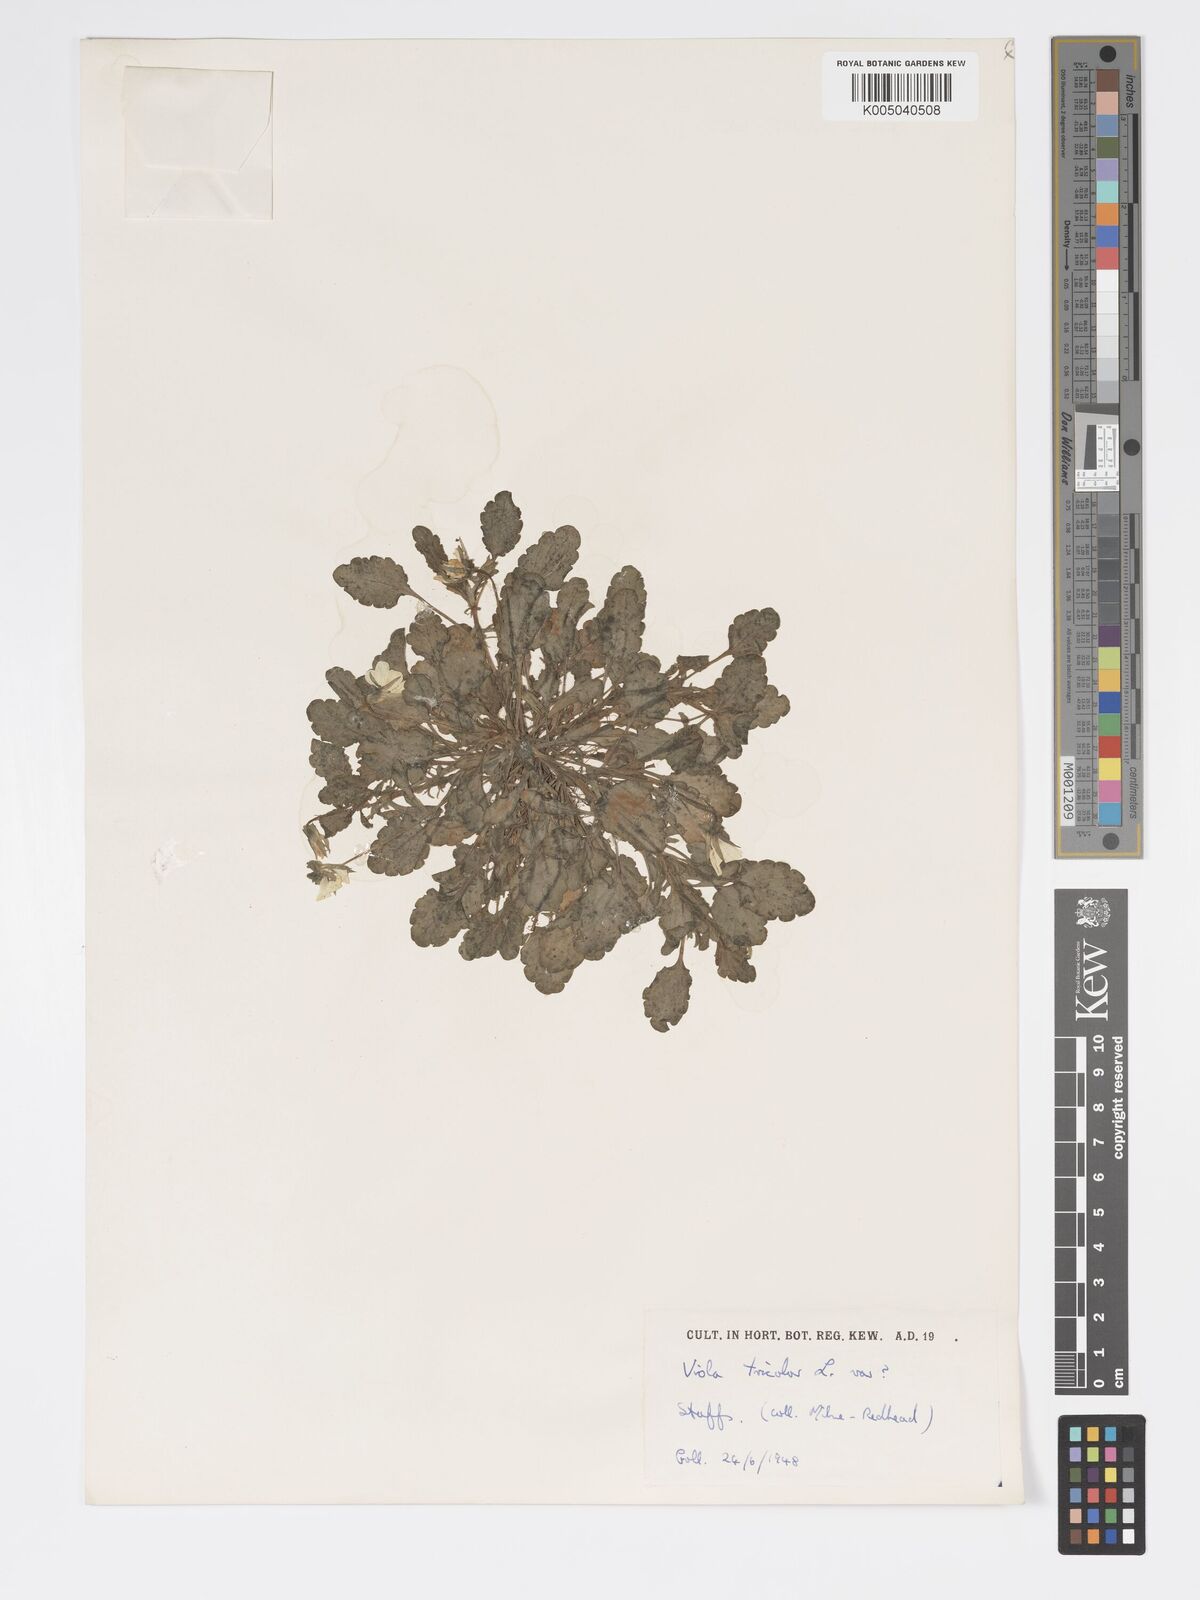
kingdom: Plantae
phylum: Tracheophyta
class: Magnoliopsida
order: Malpighiales
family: Violaceae
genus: Viola
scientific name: Viola arvensis
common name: Field pansy
